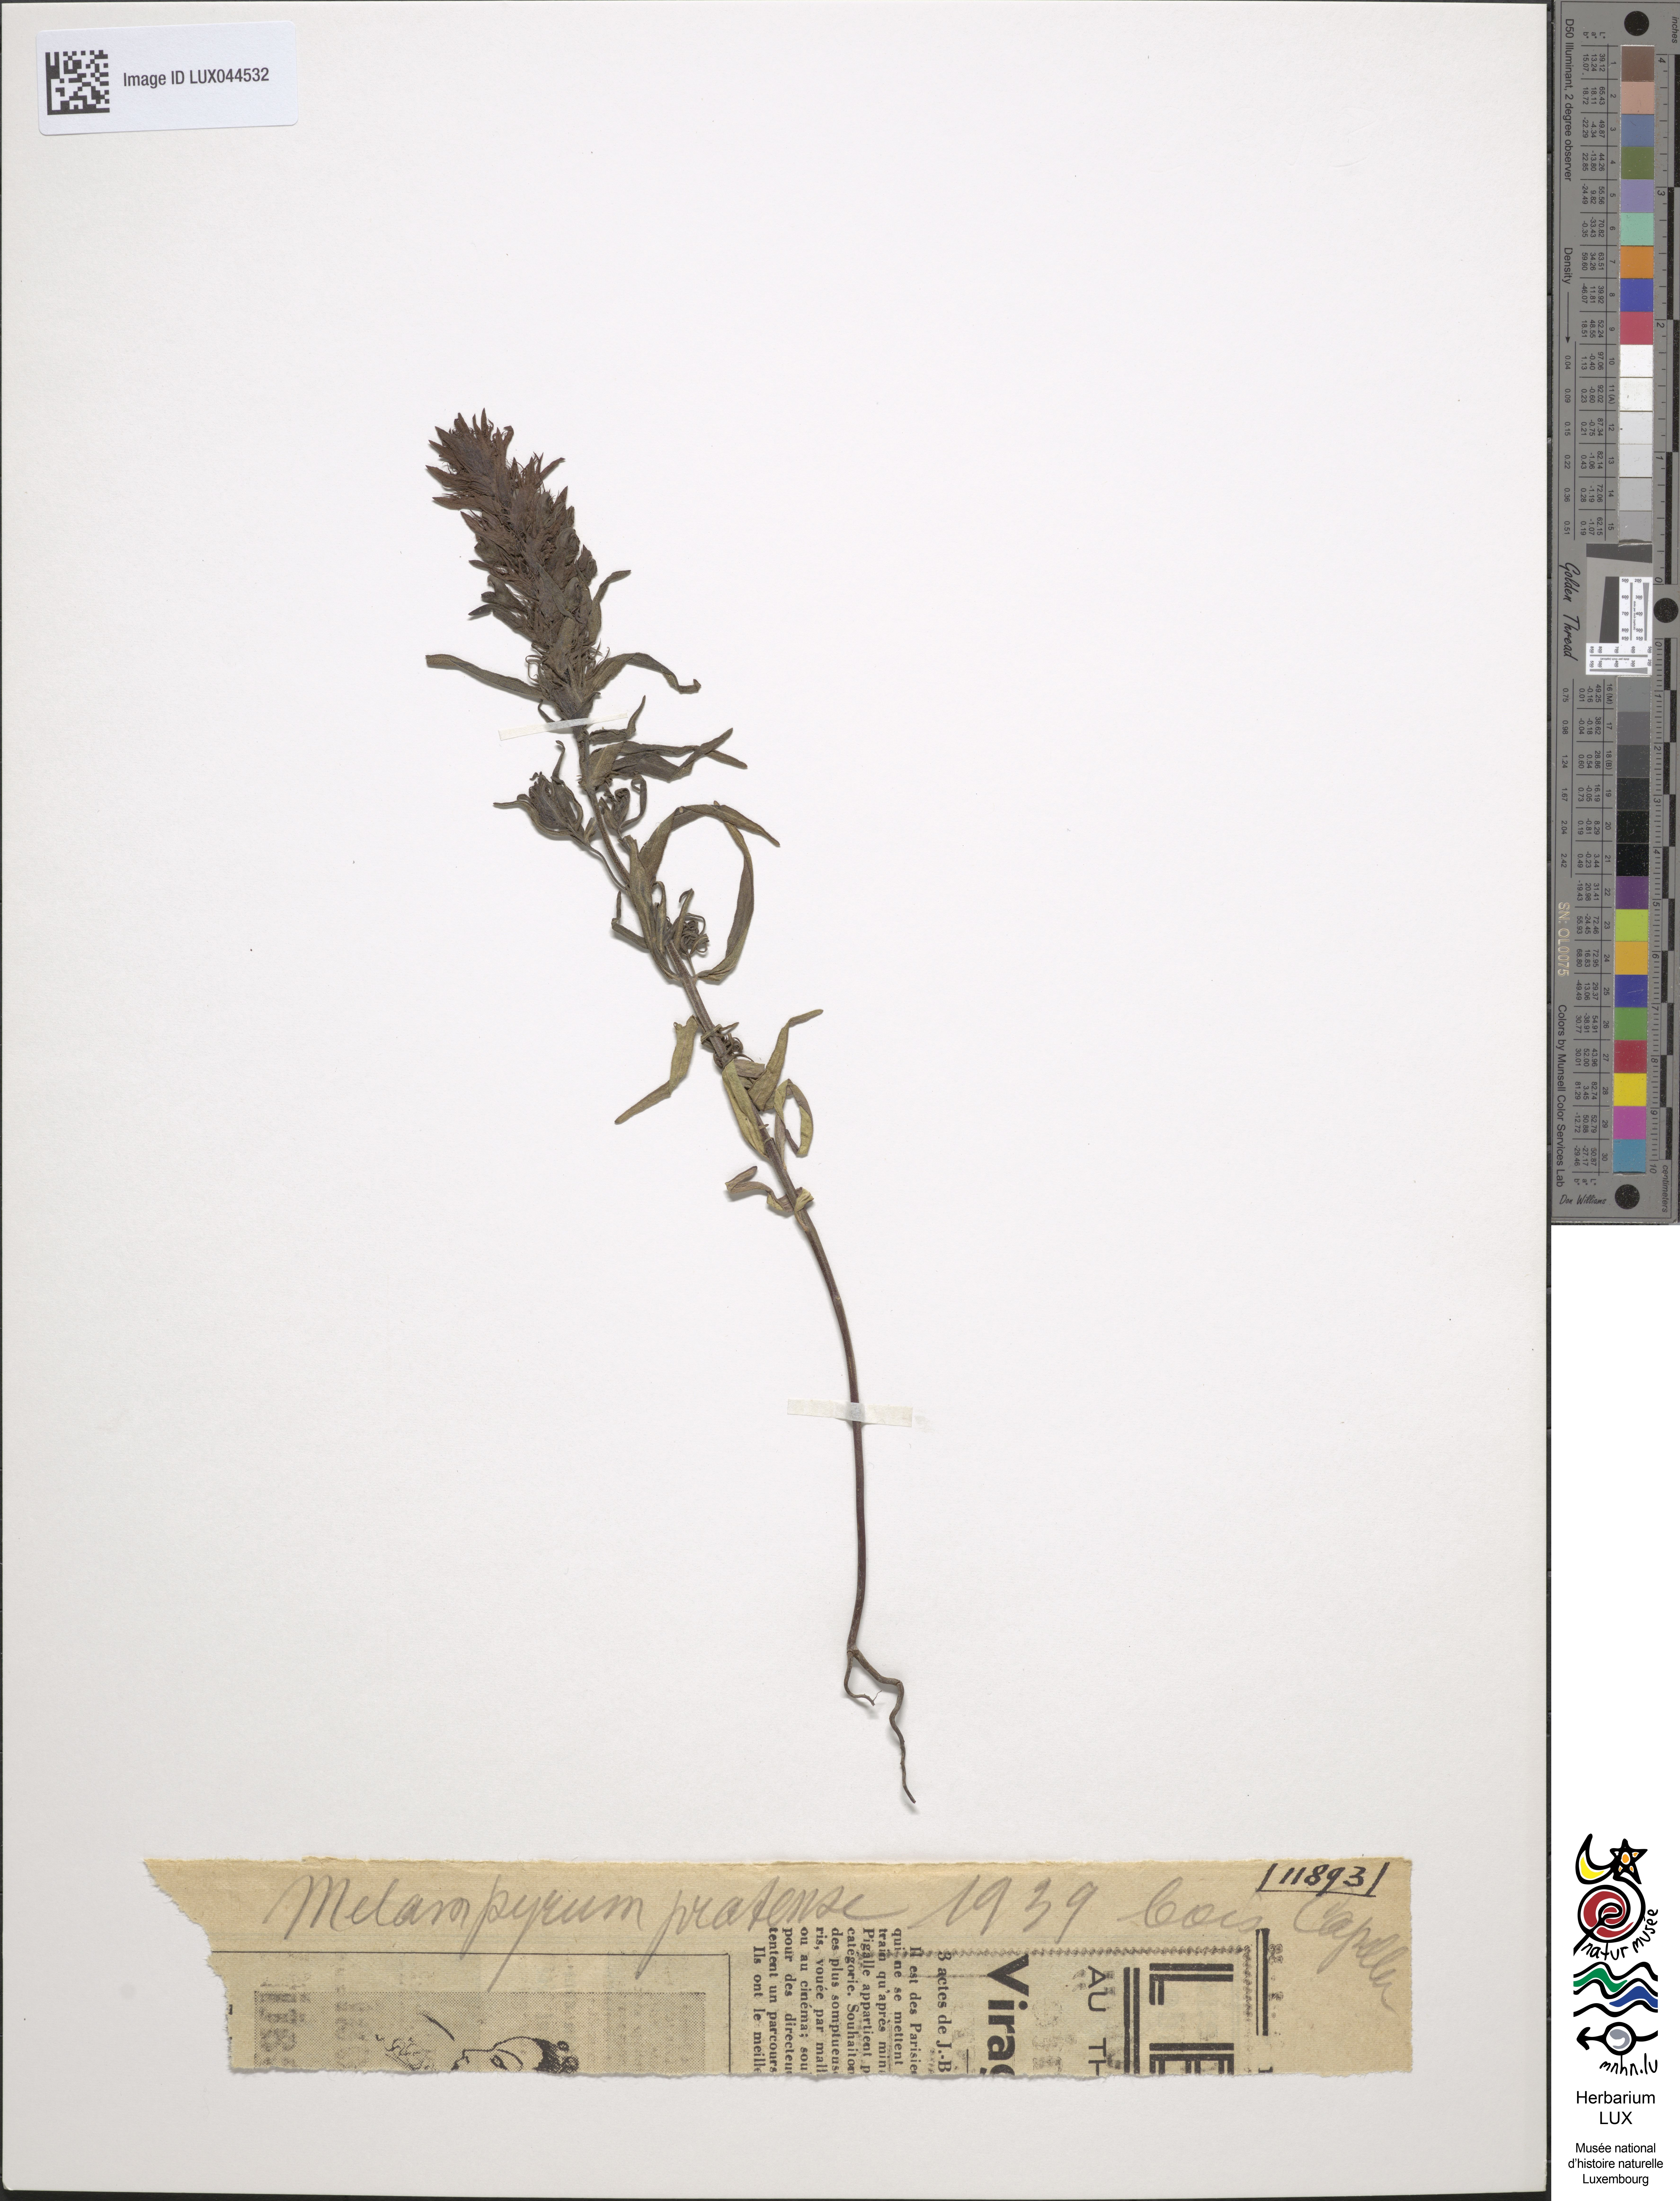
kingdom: Plantae
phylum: Tracheophyta
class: Magnoliopsida
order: Lamiales
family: Orobanchaceae
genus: Melampyrum
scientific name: Melampyrum pratense
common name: Common cow-wheat
